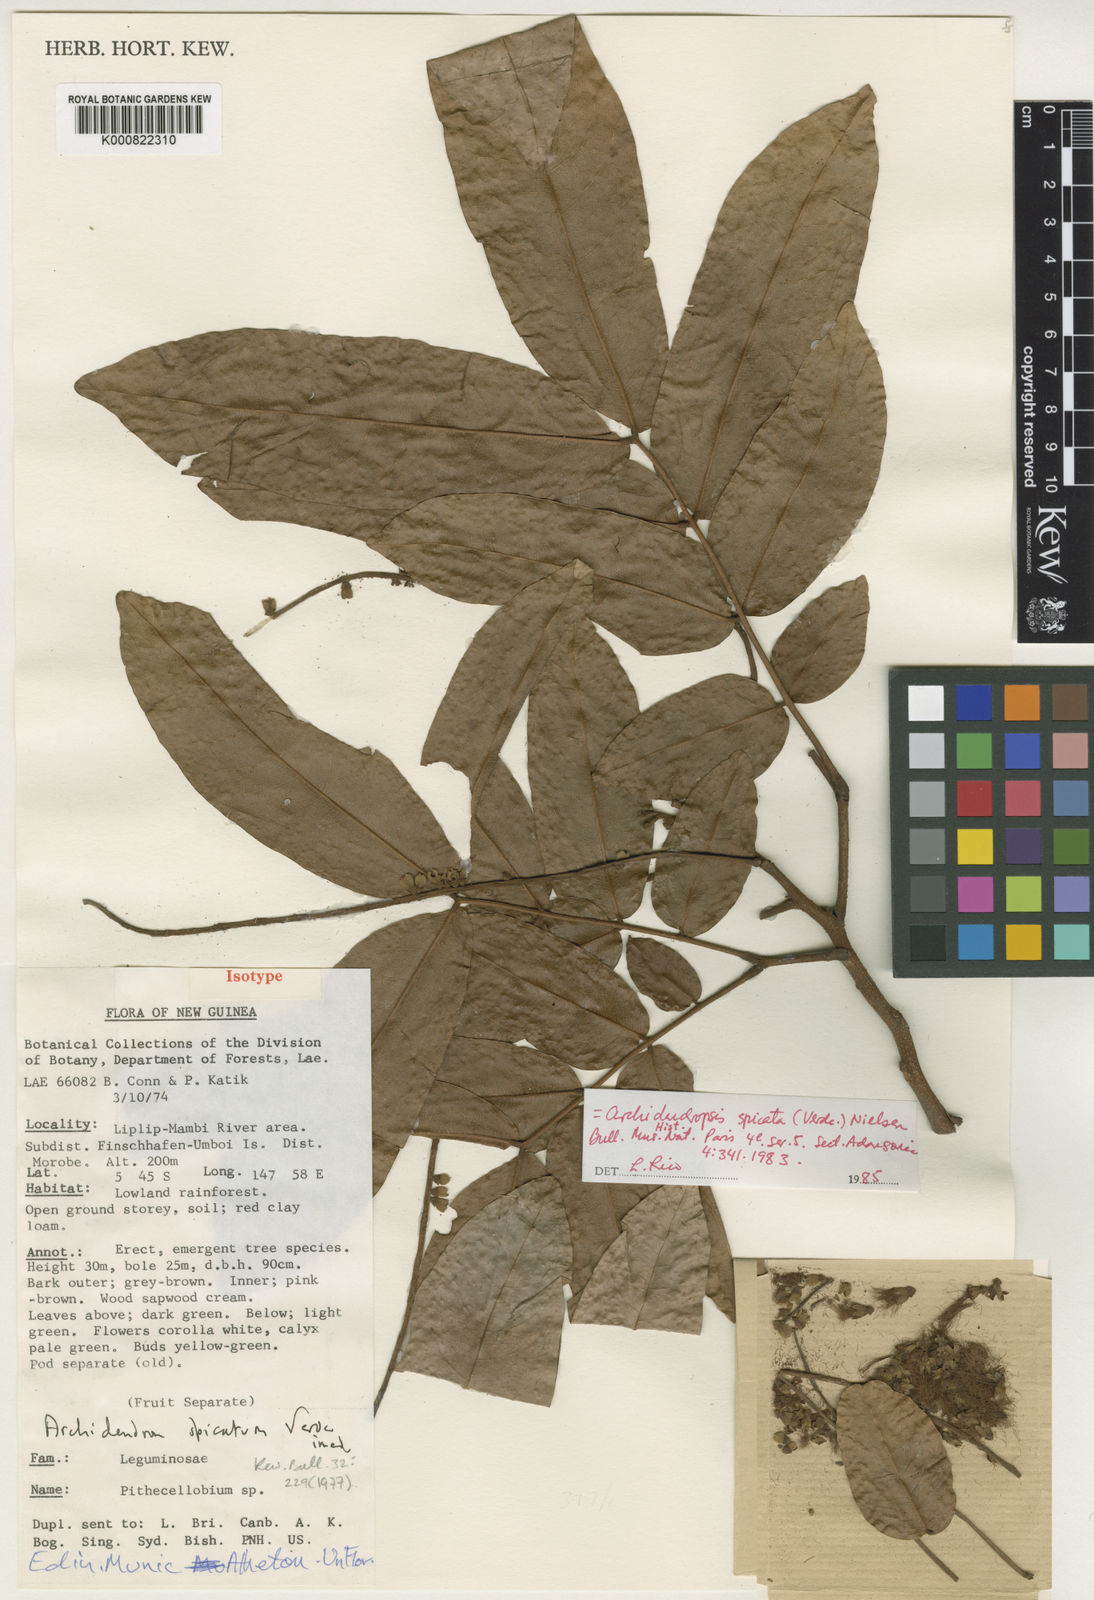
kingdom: Plantae
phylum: Tracheophyta
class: Magnoliopsida
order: Fabales
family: Fabaceae
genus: Archidendropsis
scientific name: Archidendropsis spicata
